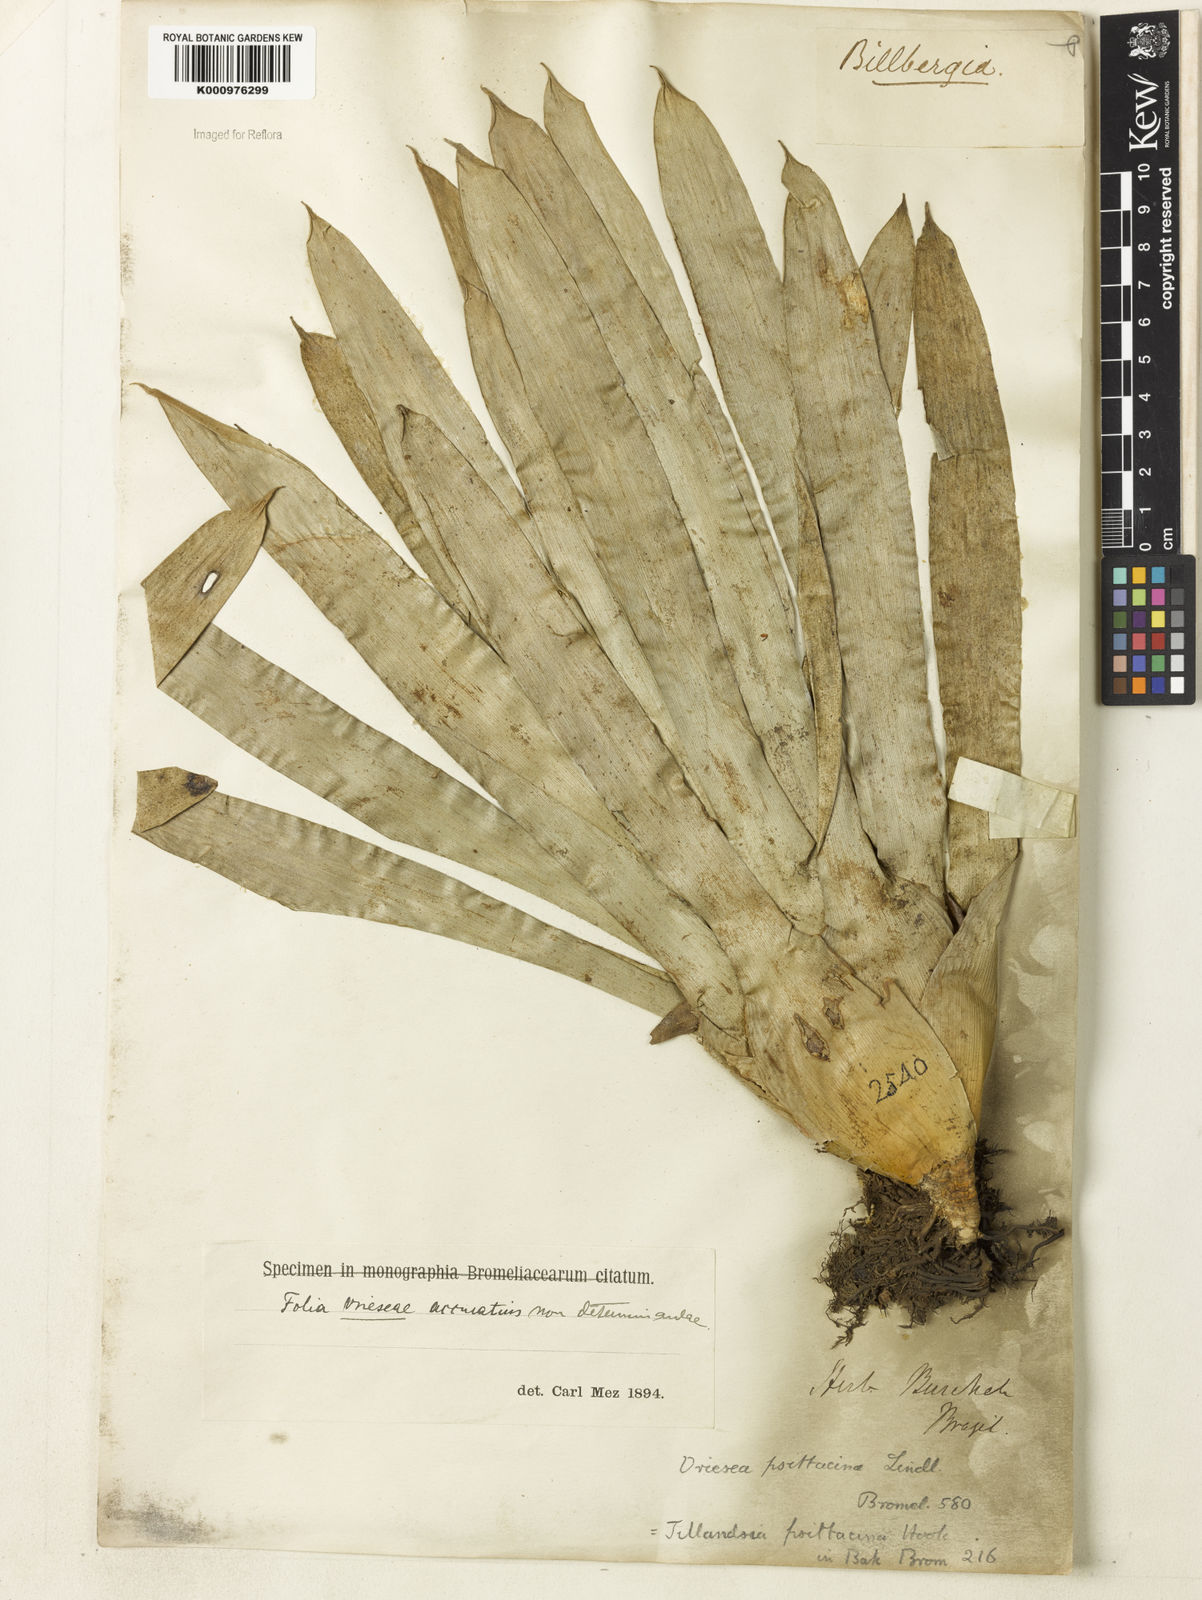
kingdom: Plantae
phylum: Tracheophyta
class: Liliopsida
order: Poales
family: Bromeliaceae
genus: Vriesea
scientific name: Vriesea psittacina
